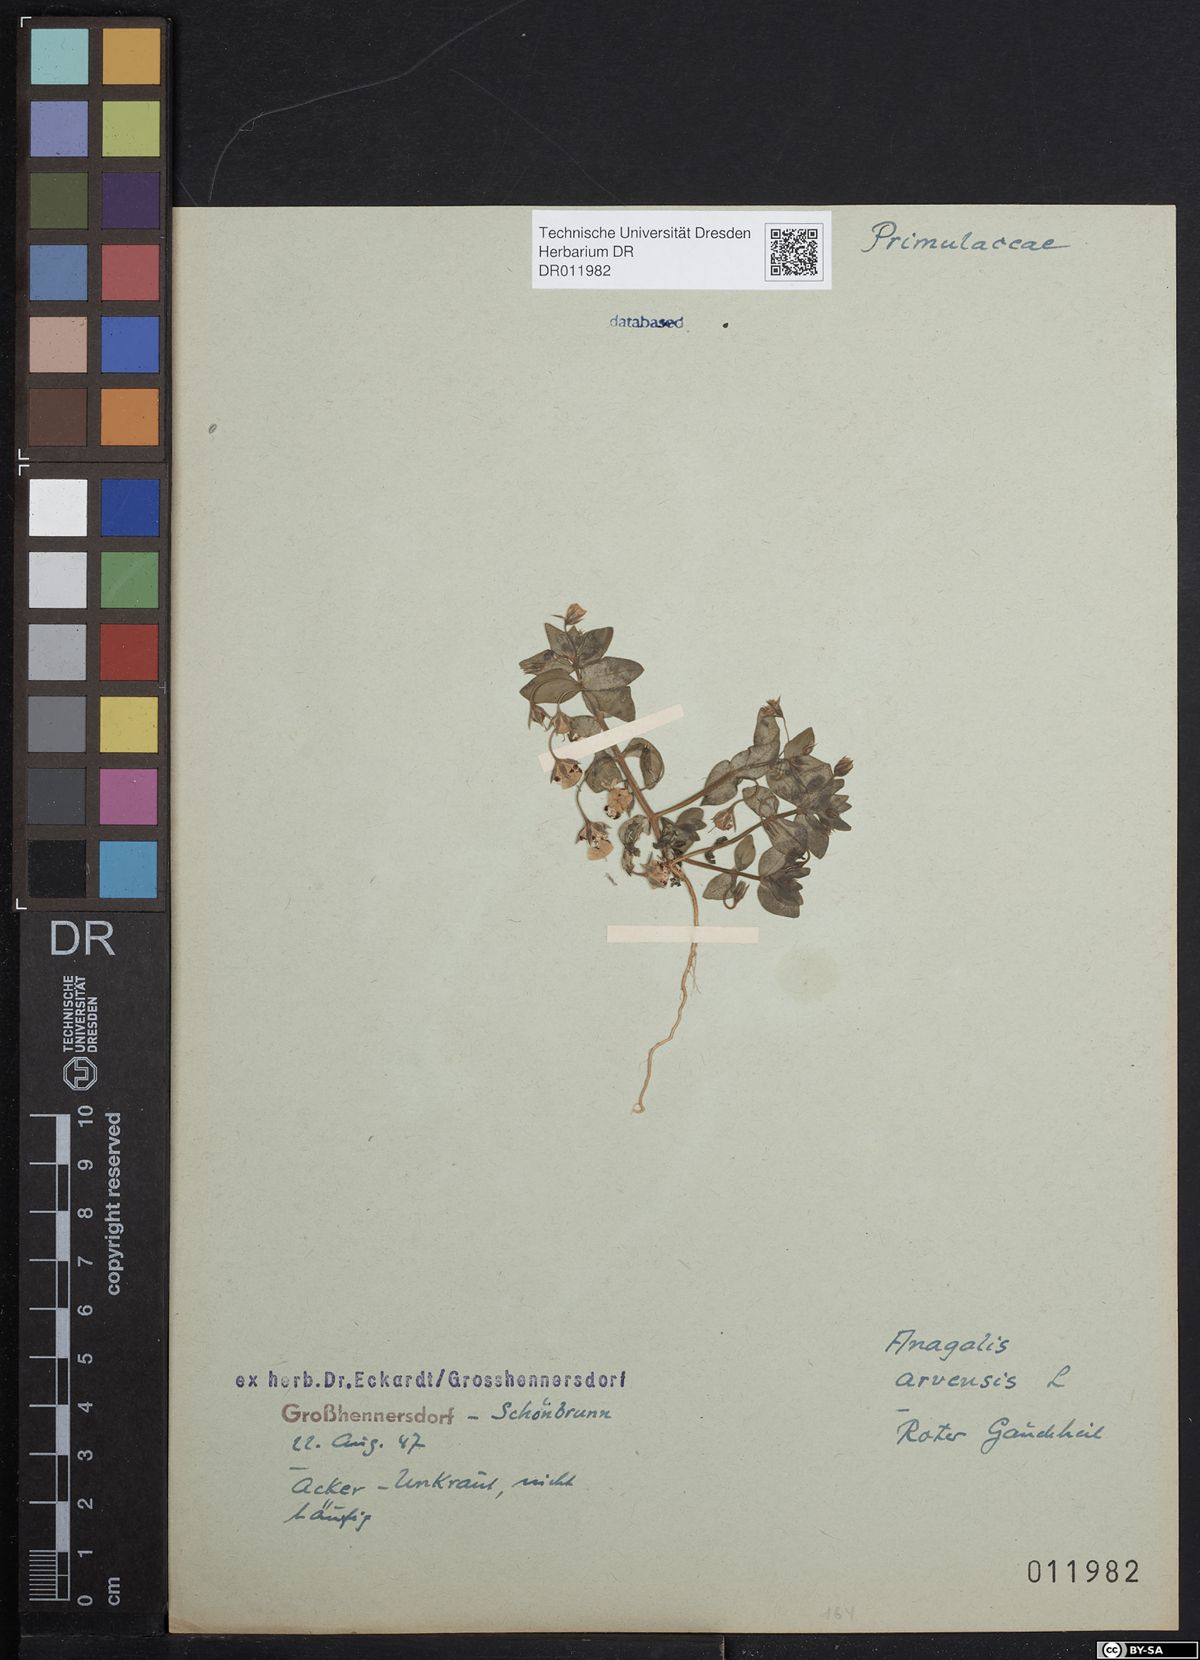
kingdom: Plantae
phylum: Tracheophyta
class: Magnoliopsida
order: Ericales
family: Primulaceae
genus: Lysimachia
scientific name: Lysimachia arvensis
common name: Scarlet pimpernel
